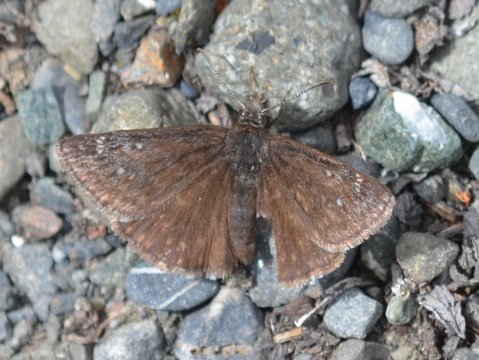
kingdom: Animalia
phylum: Arthropoda
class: Insecta
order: Lepidoptera
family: Hesperiidae
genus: Gesta
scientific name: Gesta
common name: Persius Duskywing
